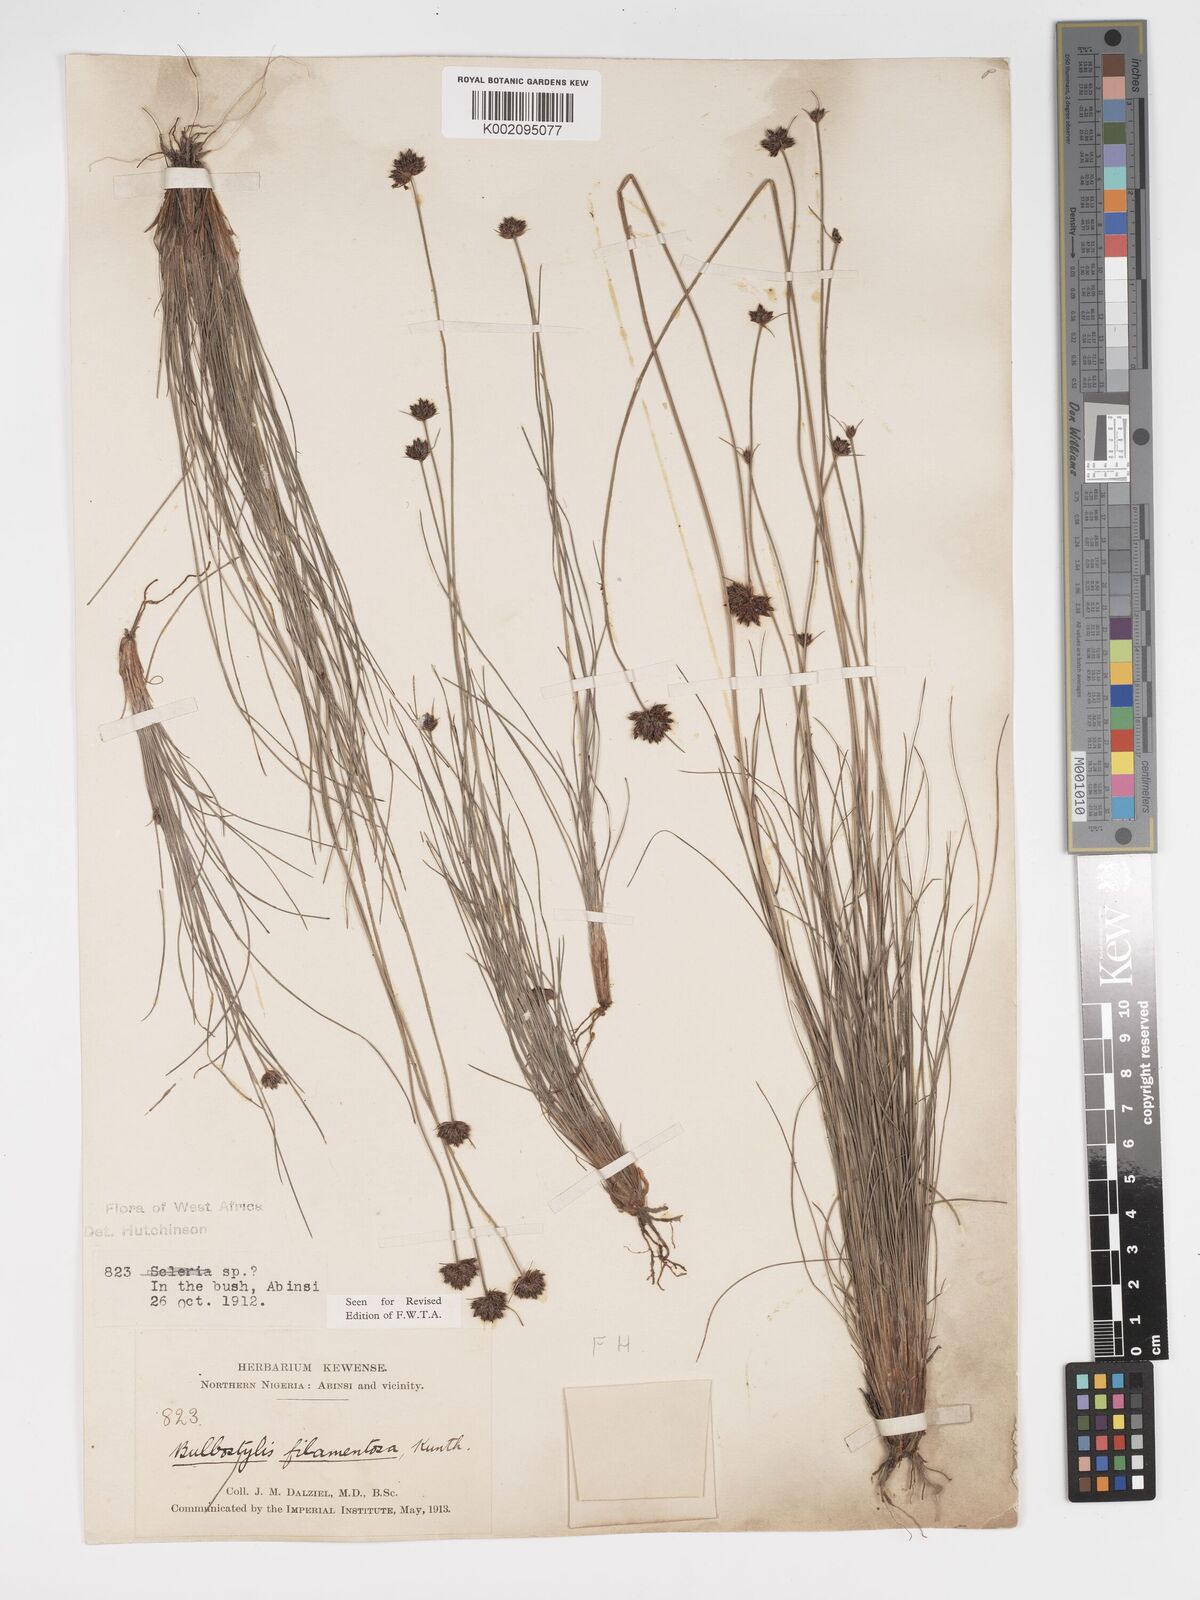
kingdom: Plantae
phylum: Tracheophyta
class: Liliopsida
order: Poales
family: Cyperaceae
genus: Bulbostylis
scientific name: Bulbostylis scabricaulis
